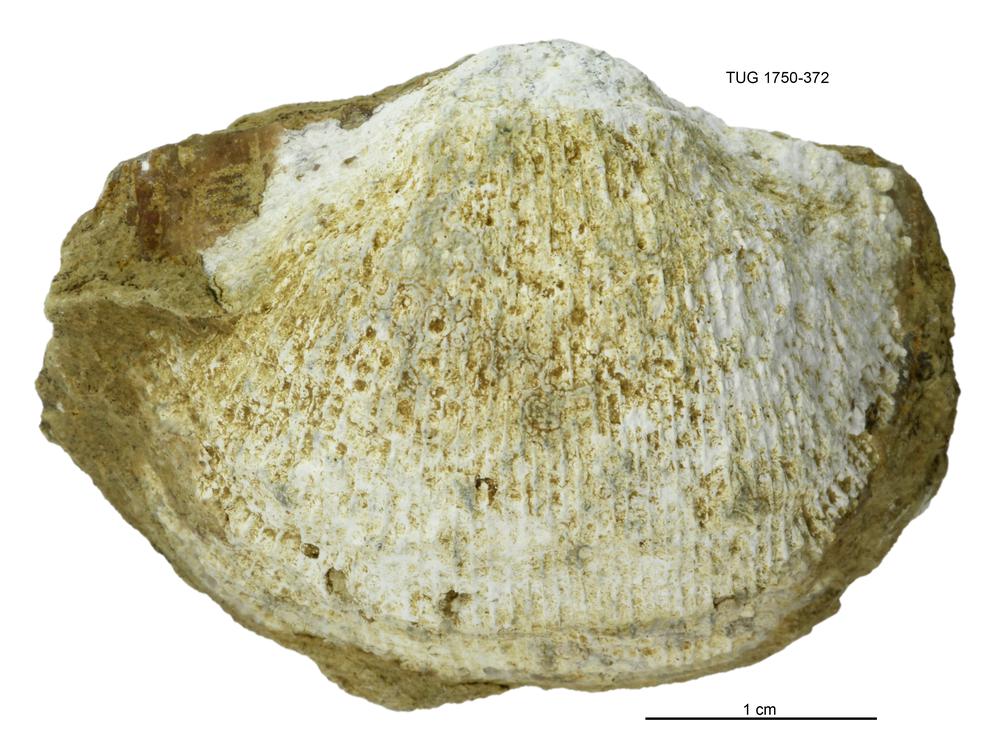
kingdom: Animalia
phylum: Brachiopoda
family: Gonambonitidae
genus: Estlandia
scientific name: Estlandia pyron
